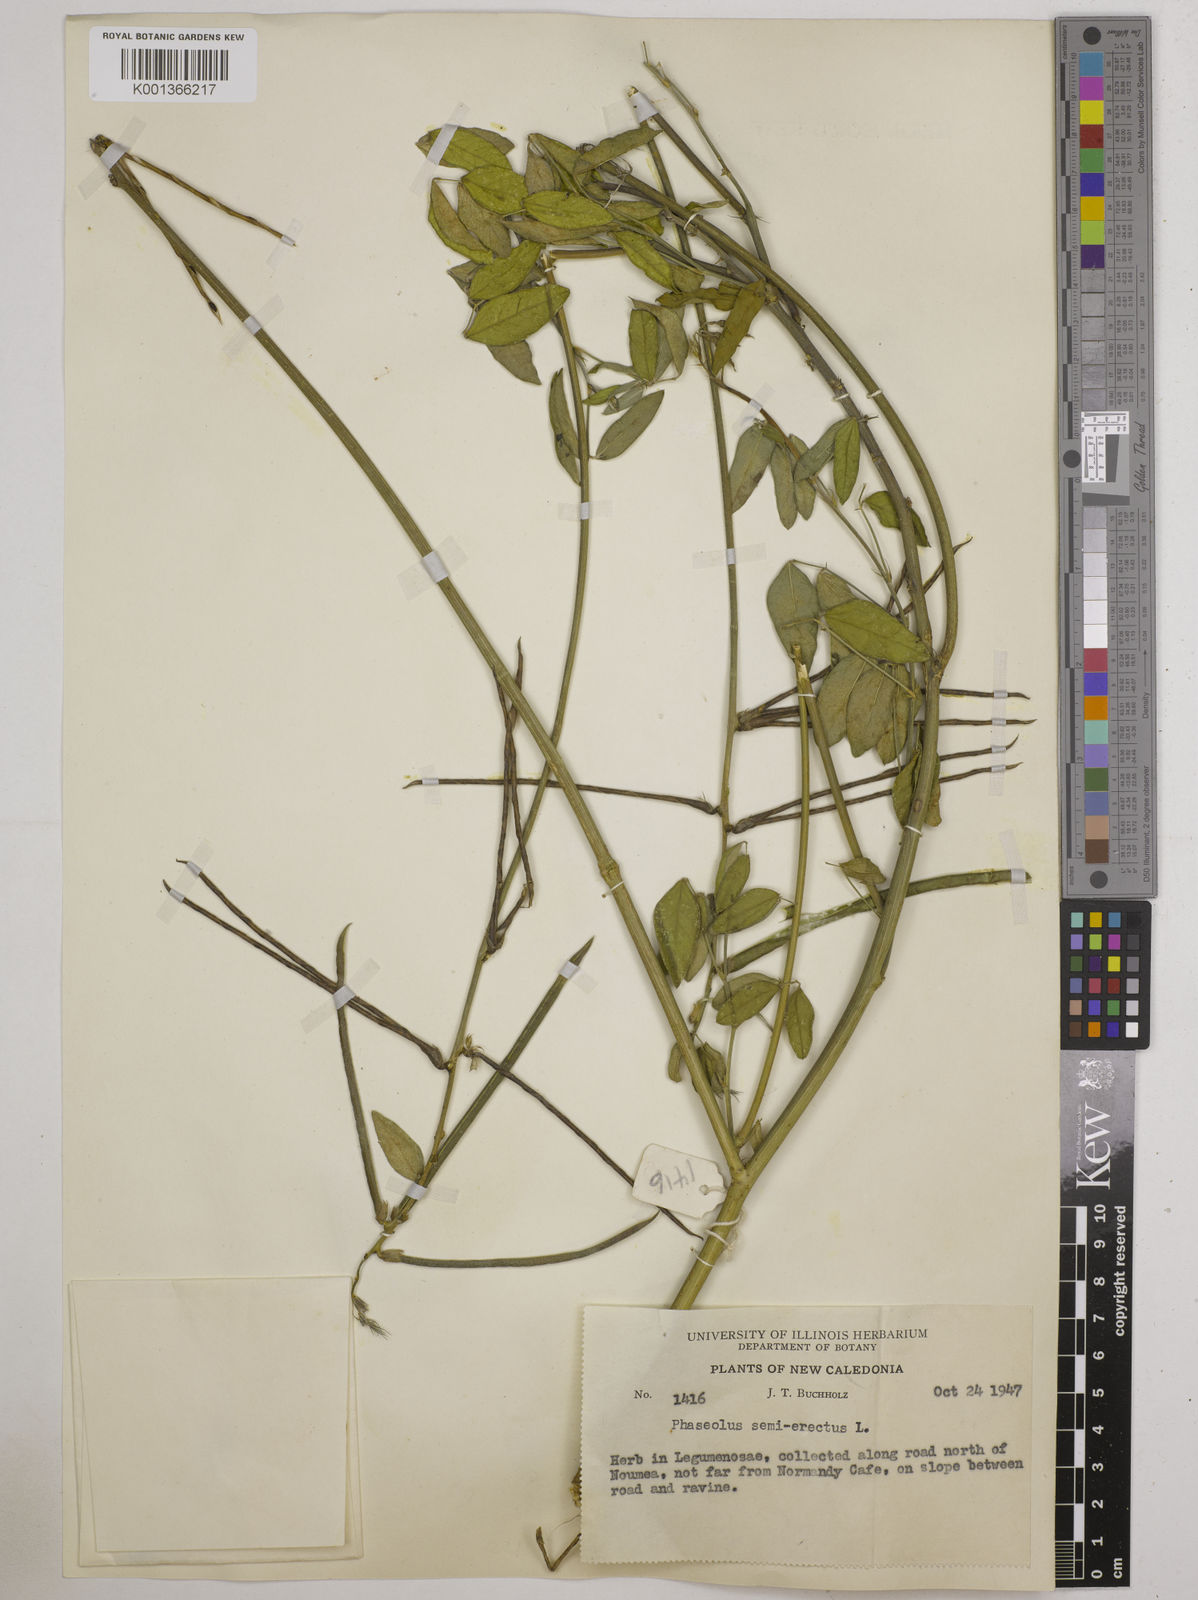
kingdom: Plantae
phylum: Tracheophyta
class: Magnoliopsida
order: Fabales
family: Fabaceae
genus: Macroptilium
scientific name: Macroptilium lathyroides
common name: Wild bushbean
